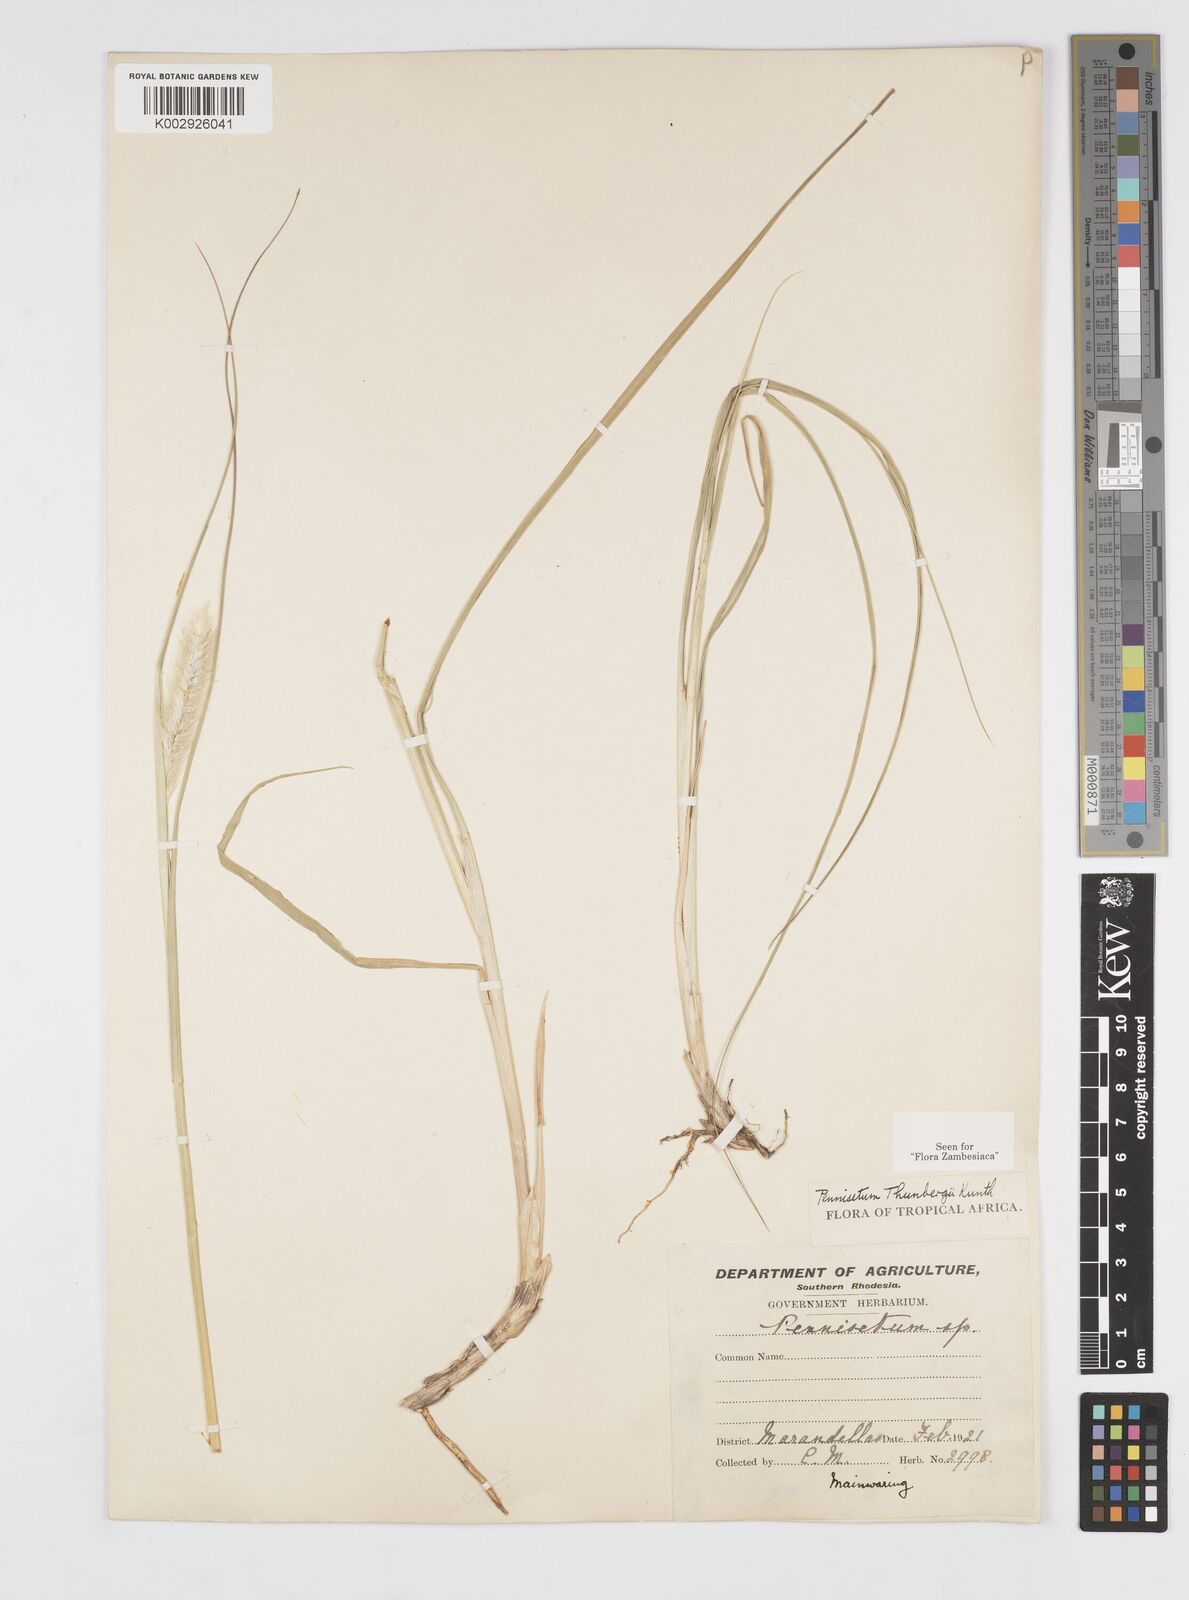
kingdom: Plantae
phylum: Tracheophyta
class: Liliopsida
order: Poales
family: Poaceae
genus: Cenchrus
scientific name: Cenchrus geniculatus
